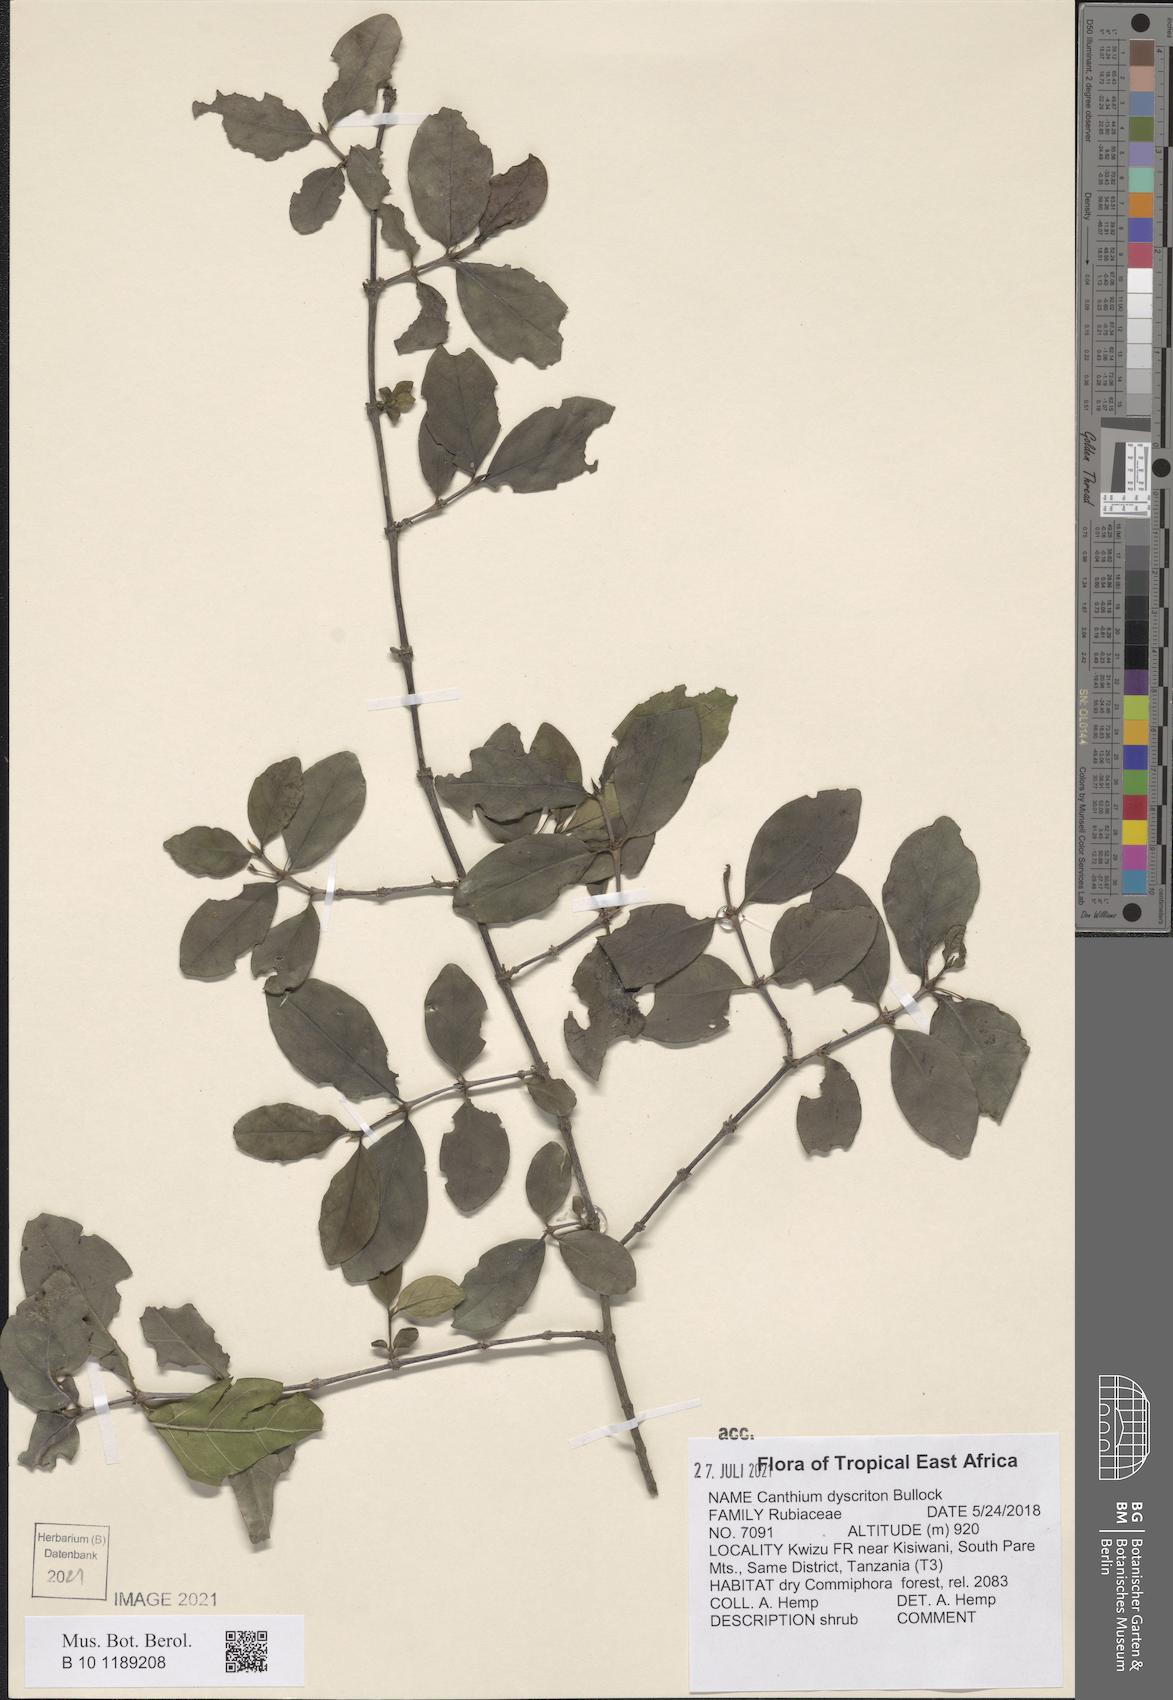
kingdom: Plantae
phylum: Tracheophyta
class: Magnoliopsida
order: Gentianales
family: Rubiaceae
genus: Bullockia
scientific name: Bullockia dyscritos
